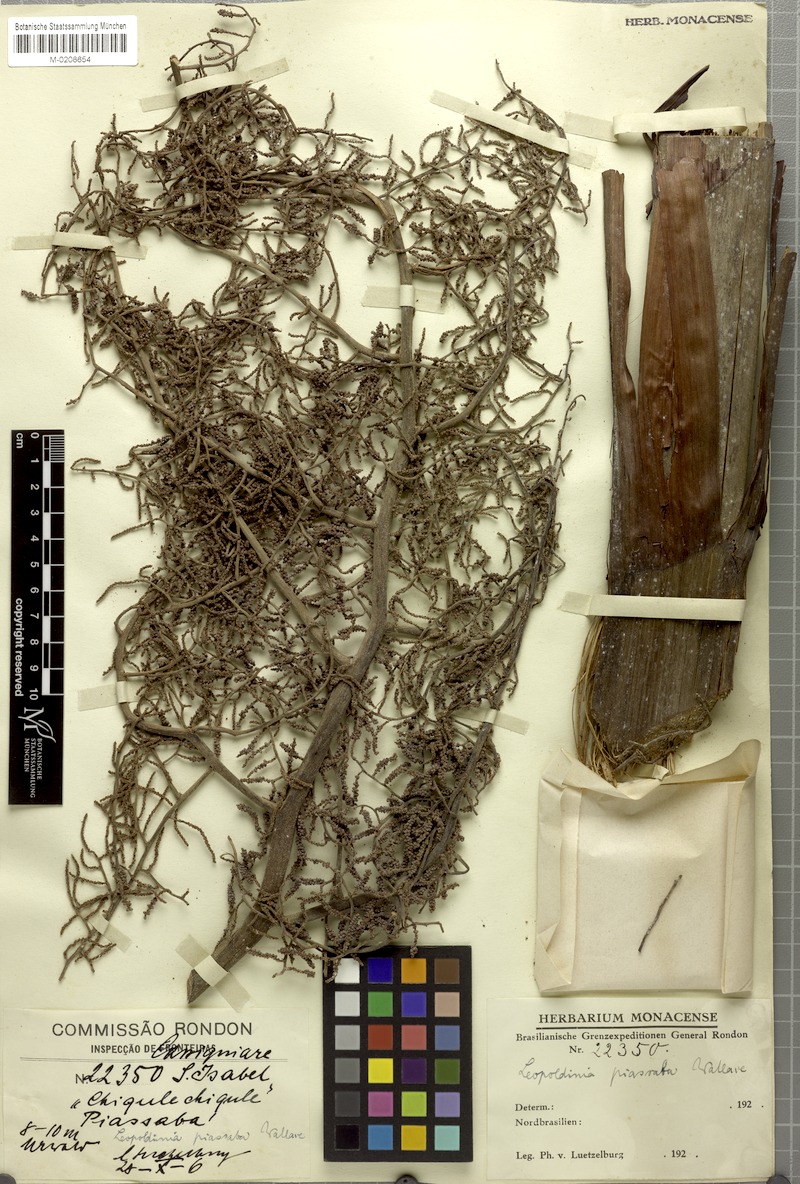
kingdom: Plantae
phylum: Tracheophyta
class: Liliopsida
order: Arecales
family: Arecaceae
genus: Leopoldinia
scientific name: Leopoldinia piassaba
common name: Piassaba
